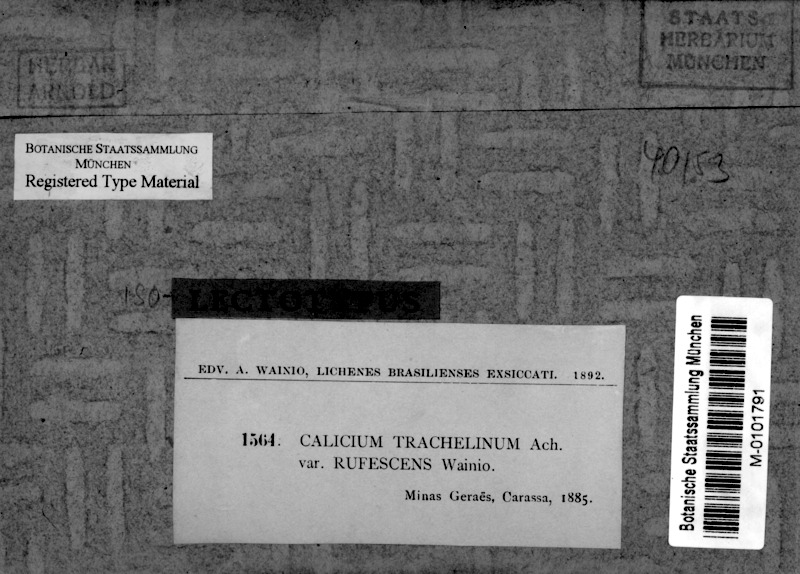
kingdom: Fungi
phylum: Ascomycota
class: Lecanoromycetes
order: Caliciales
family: Caliciaceae
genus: Calicium
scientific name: Calicium salicinum
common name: Rusted stubble lichen
